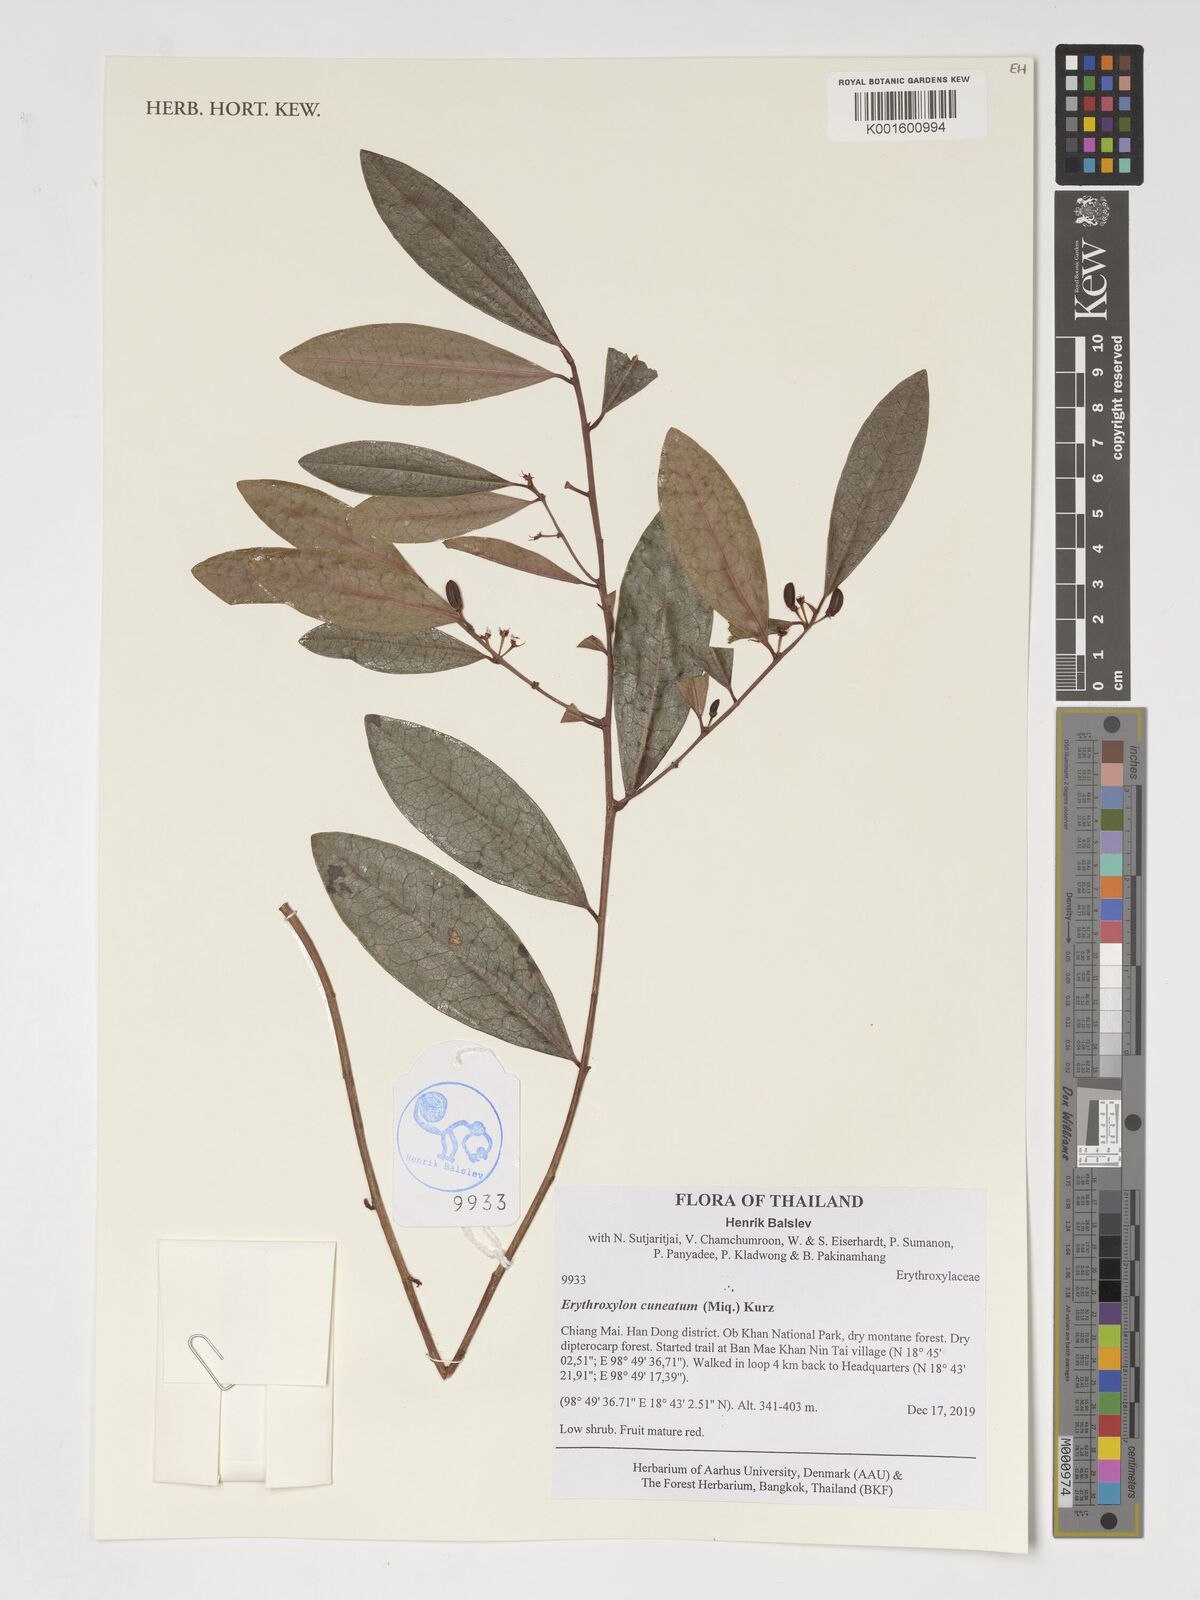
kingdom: Plantae
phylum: Tracheophyta
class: Magnoliopsida
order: Malpighiales
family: Erythroxylaceae
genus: Erythroxylum
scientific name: Erythroxylum cuneatum
